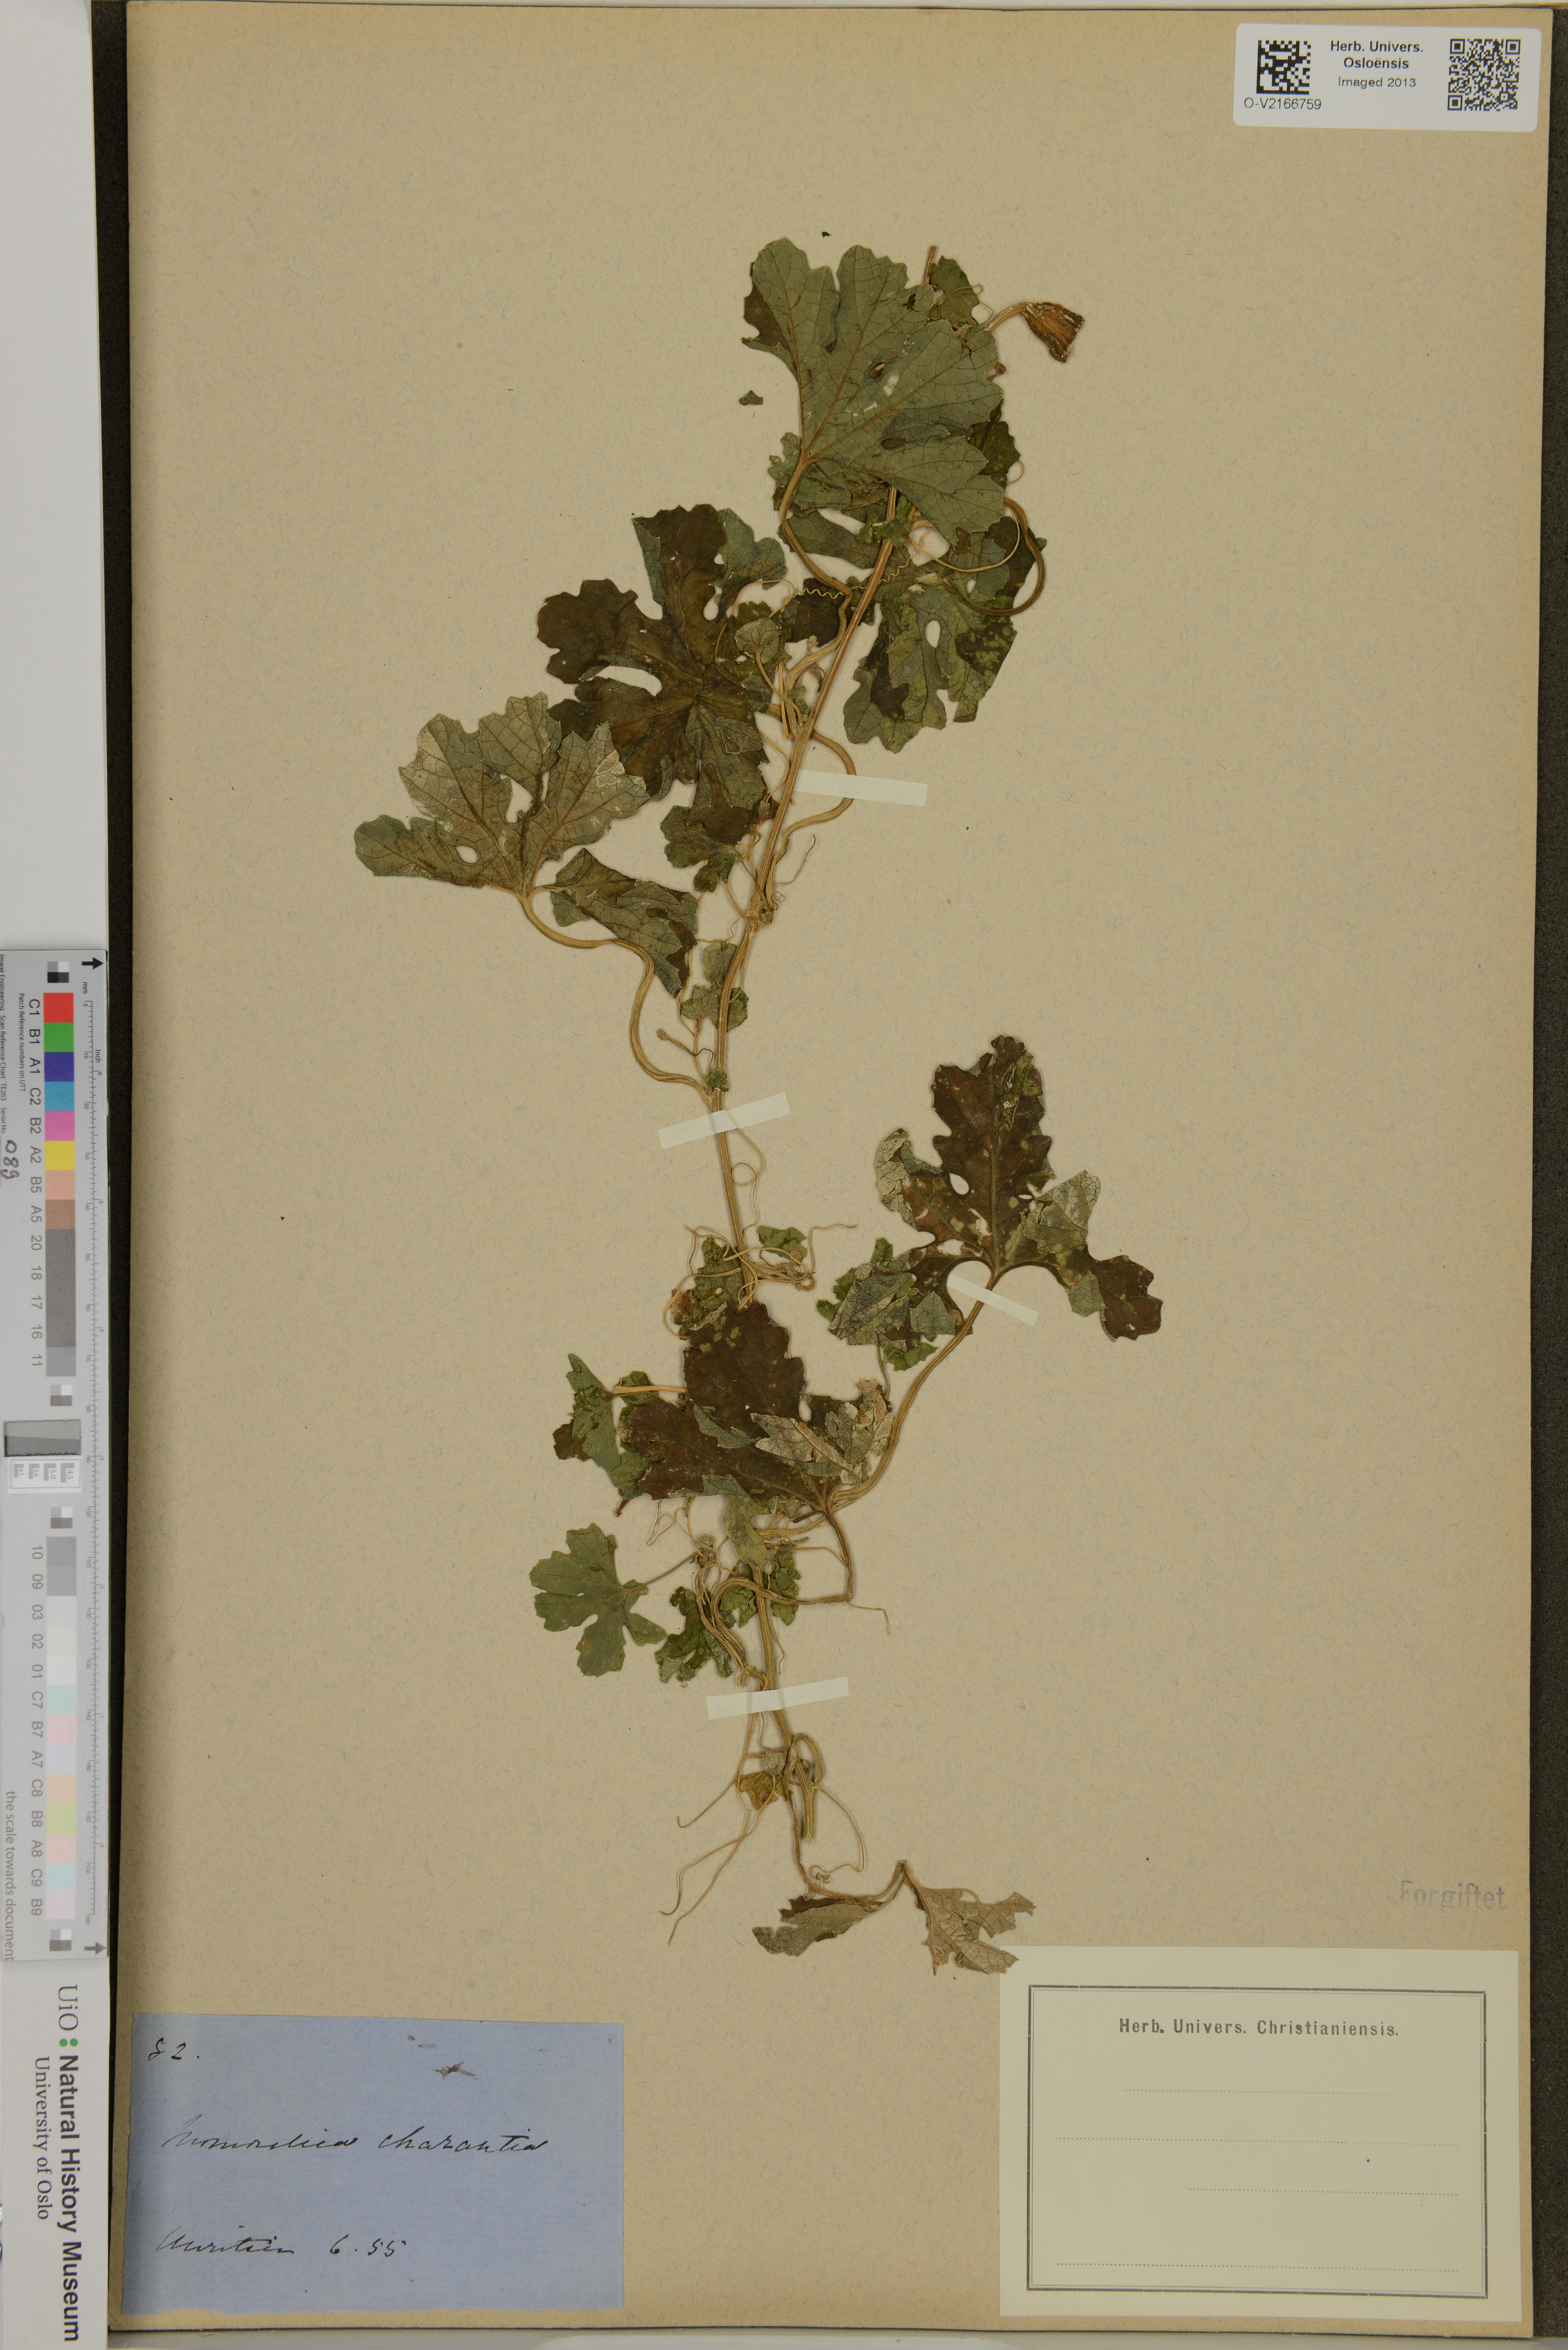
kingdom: Plantae
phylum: Tracheophyta
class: Magnoliopsida
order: Cucurbitales
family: Cucurbitaceae
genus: Momordica
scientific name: Momordica charantia
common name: Balsampear
